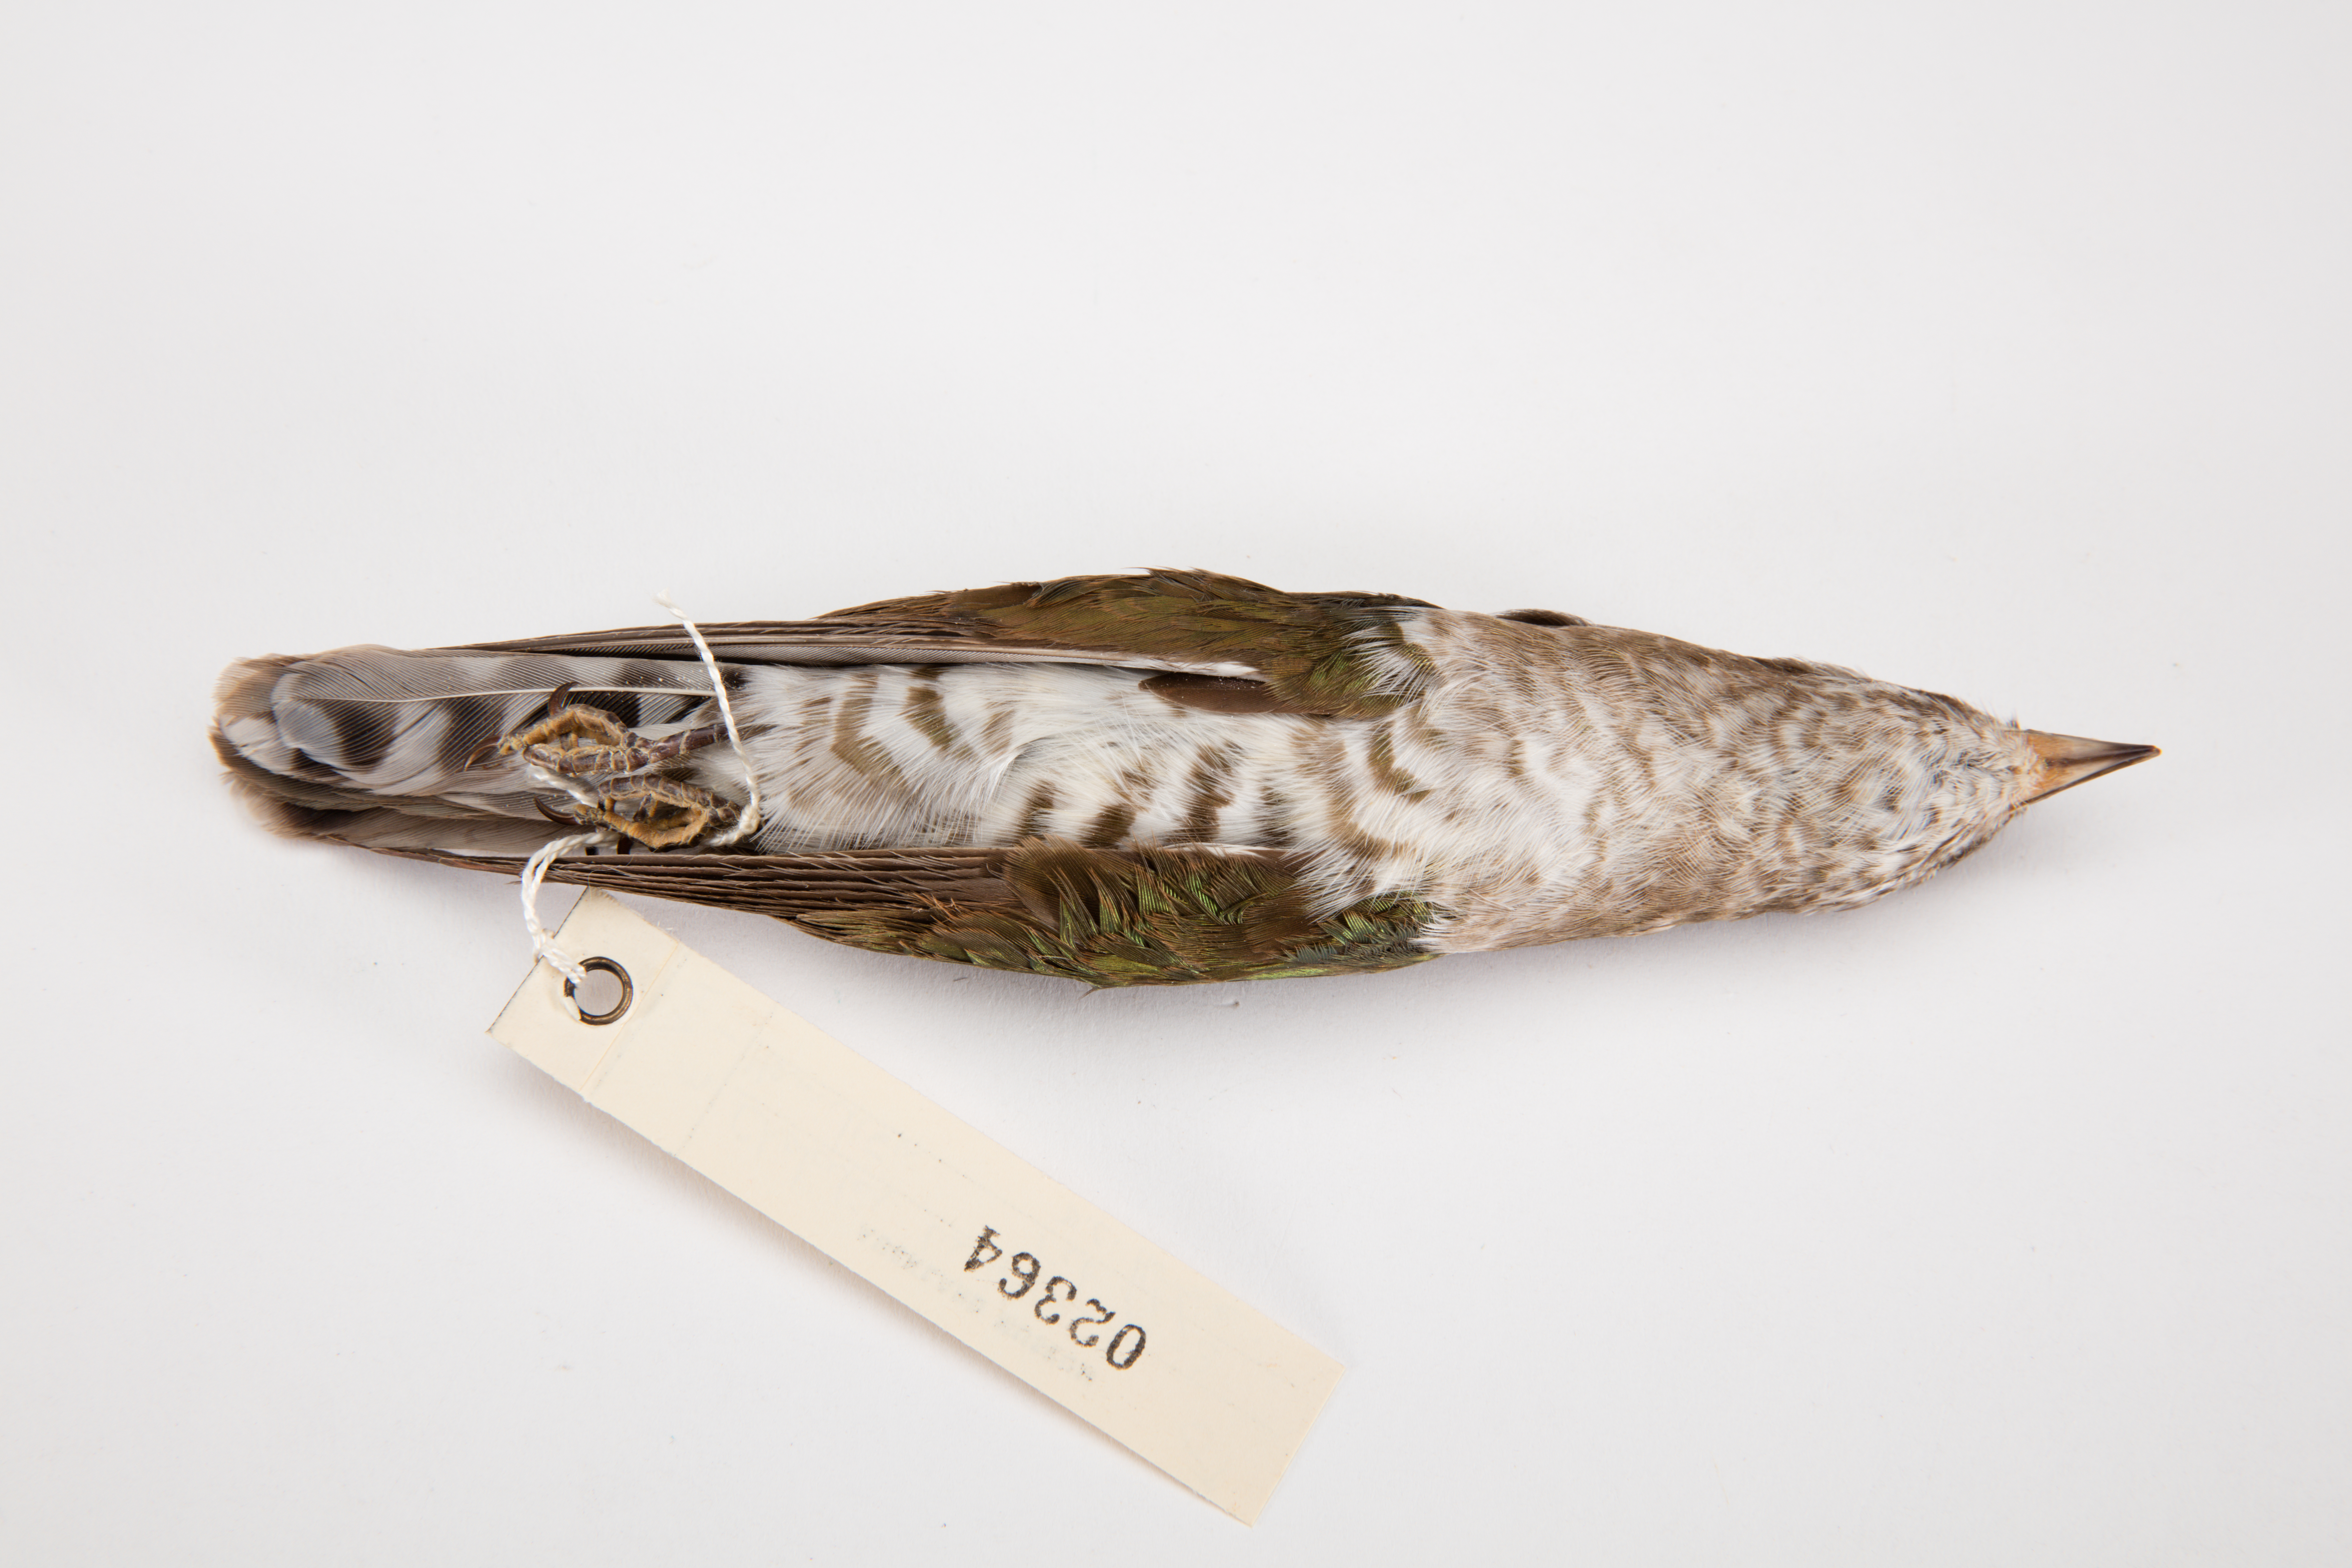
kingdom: Animalia
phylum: Chordata
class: Aves
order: Cuculiformes
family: Cuculidae
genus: Chrysococcyx
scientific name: Chrysococcyx lucidus
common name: Shining bronze cuckoo
